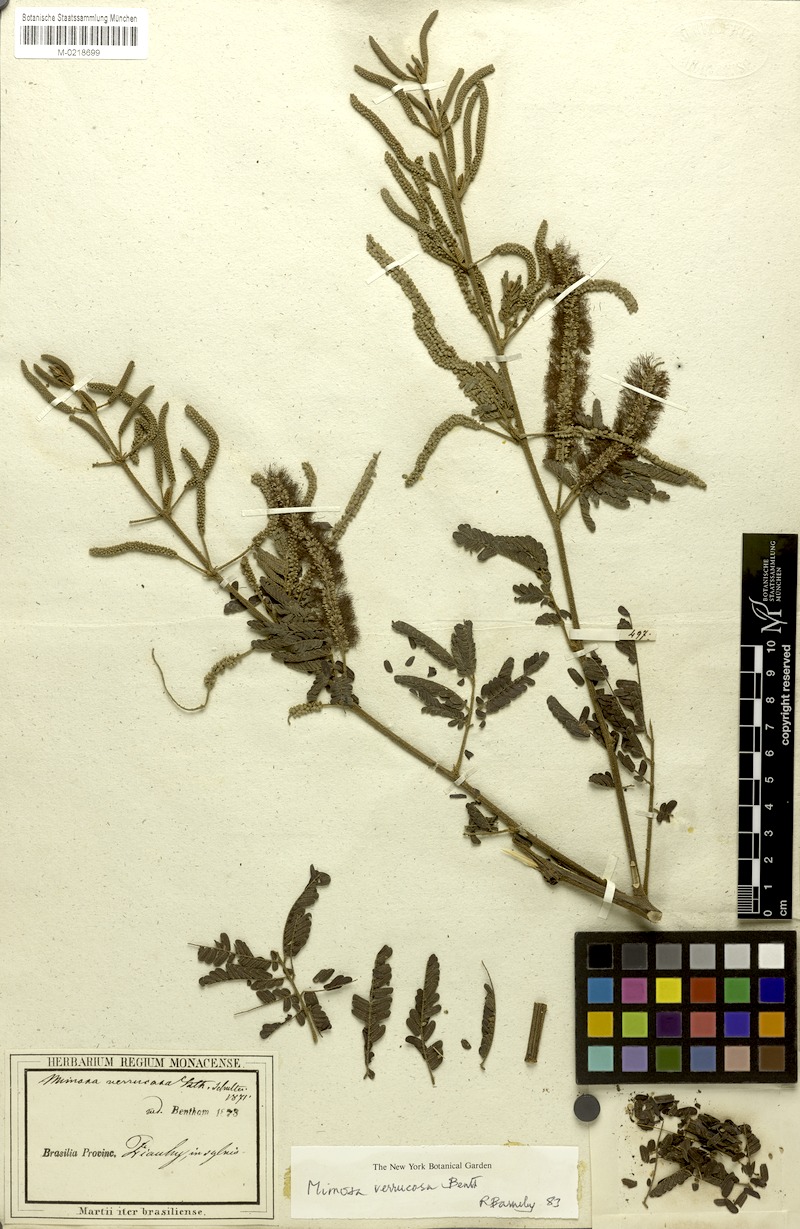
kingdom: Plantae
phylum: Tracheophyta
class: Magnoliopsida
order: Fabales
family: Fabaceae
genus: Mimosa
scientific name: Mimosa verrucosa
